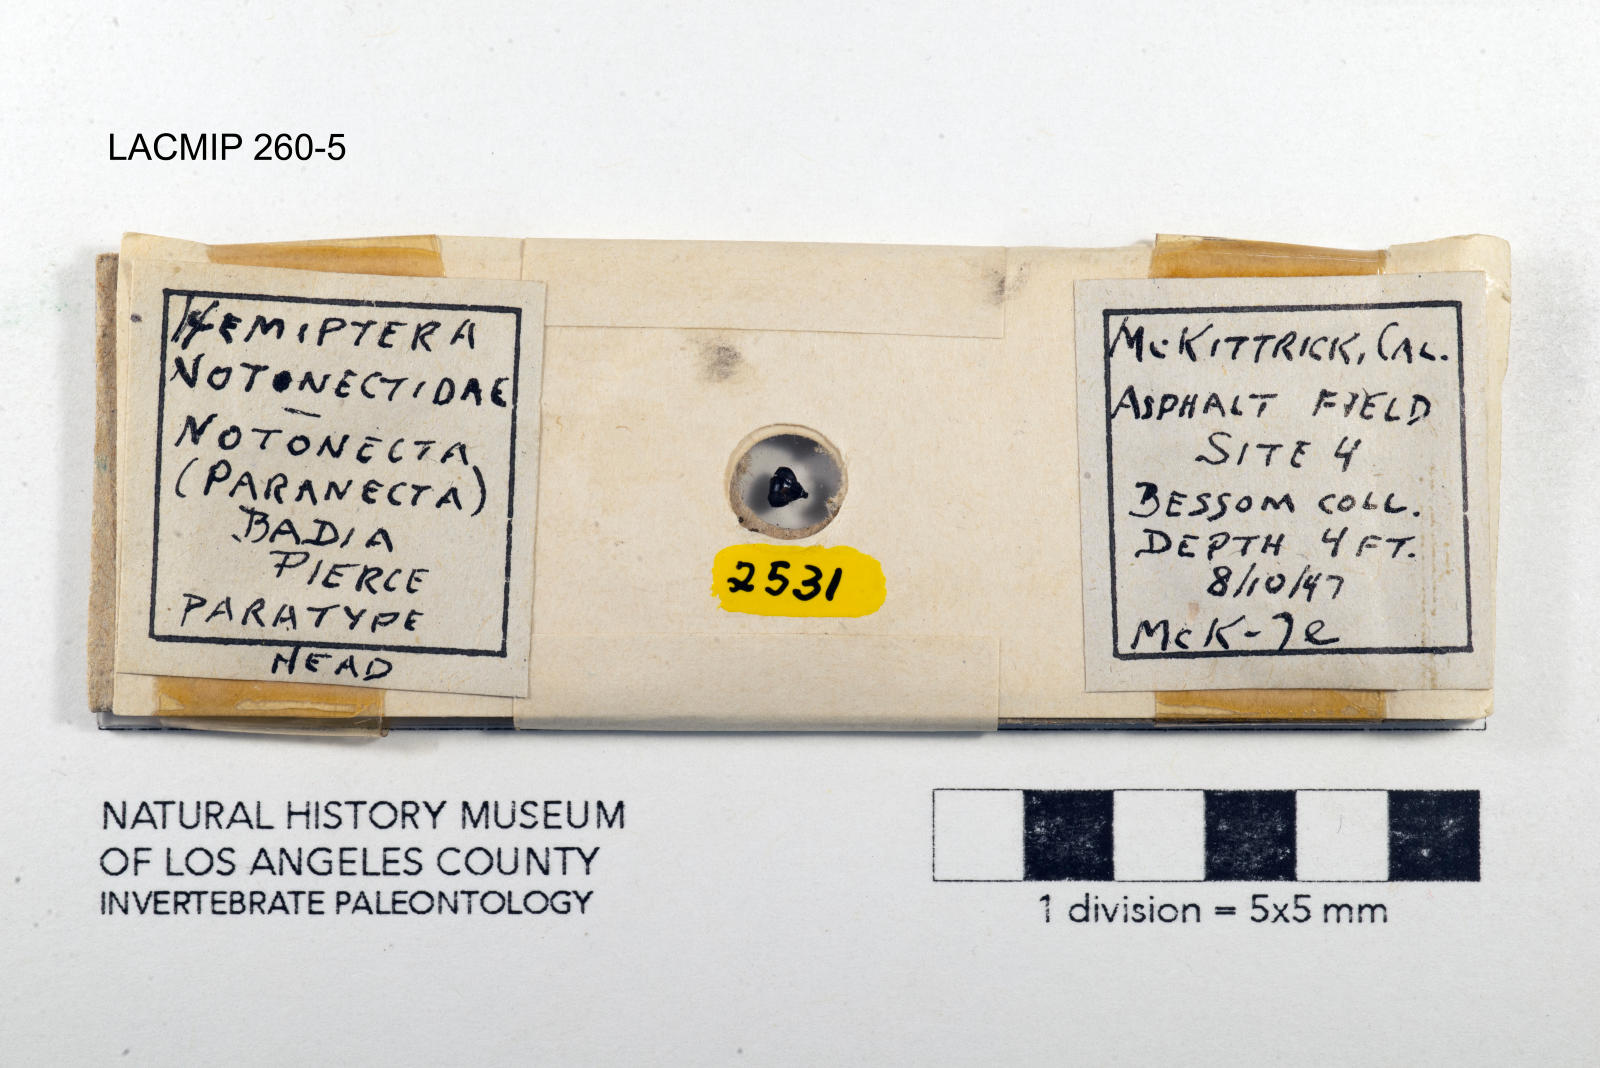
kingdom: Animalia
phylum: Arthropoda
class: Insecta
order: Hemiptera
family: Notonectidae
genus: Notonecta
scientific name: Notonecta unifasciata
